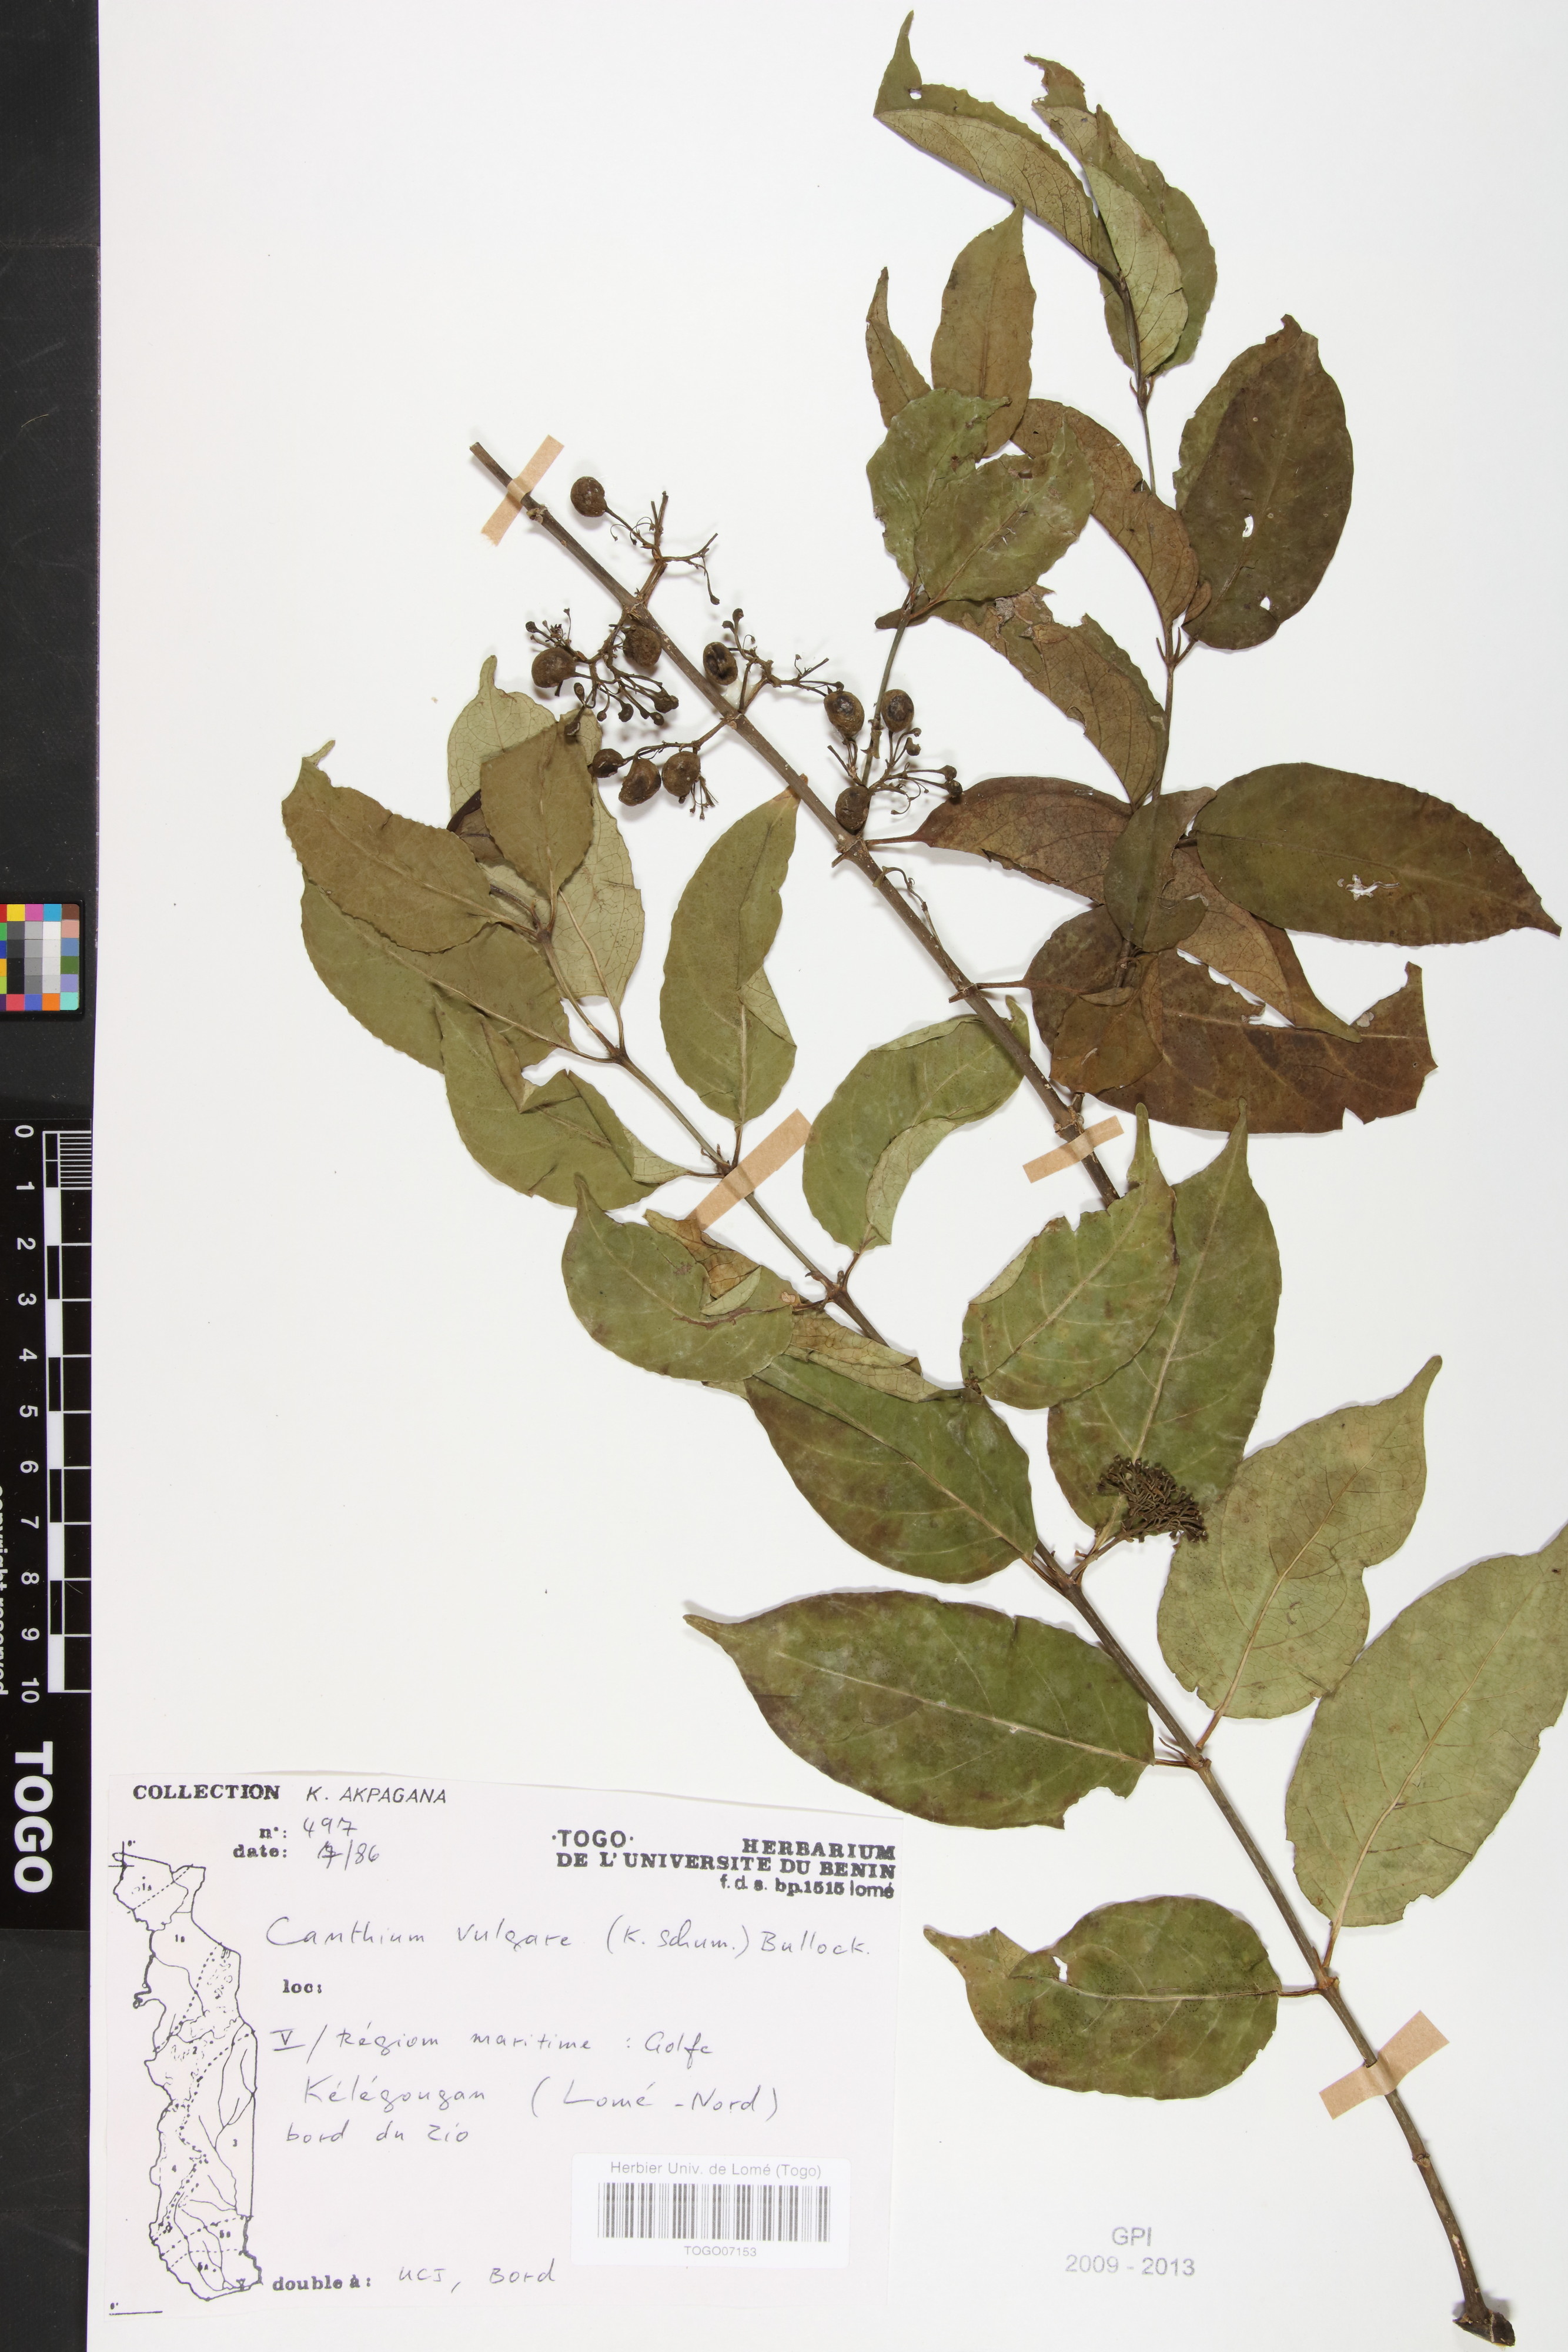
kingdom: Plantae
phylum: Tracheophyta
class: Magnoliopsida
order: Gentianales
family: Rubiaceae
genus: Psydrax
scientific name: Psydrax parviflorus
